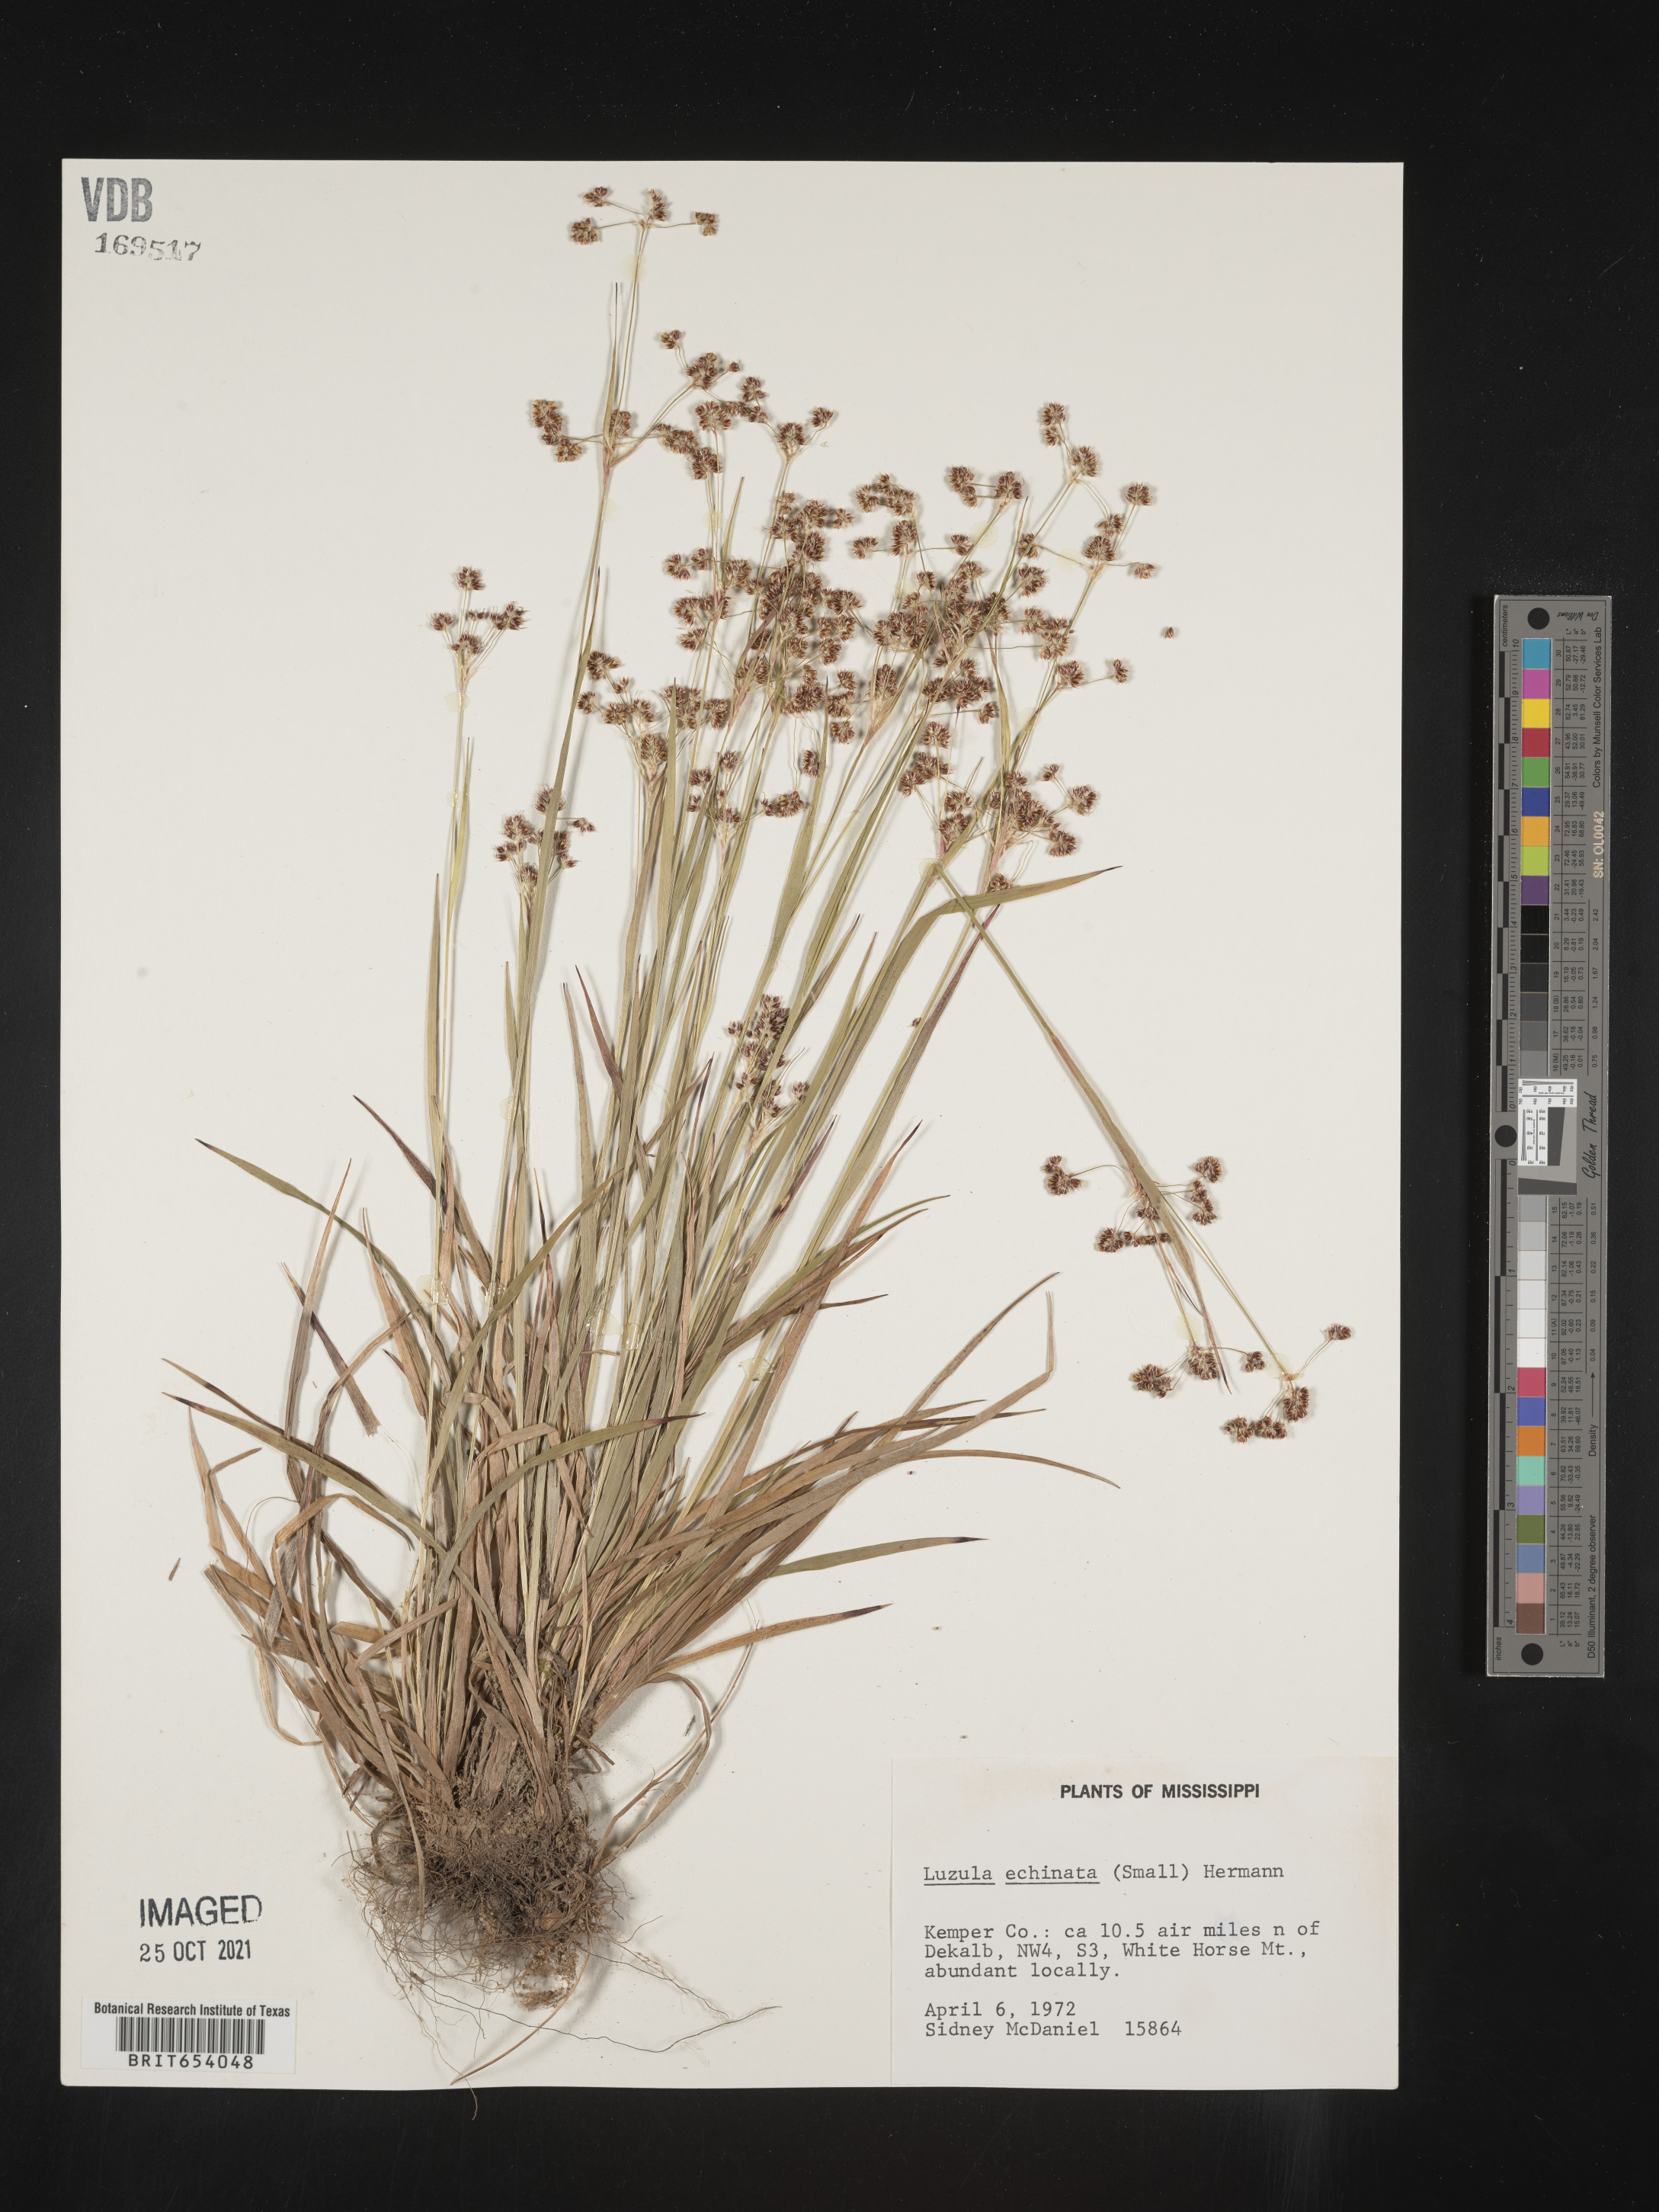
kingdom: Plantae
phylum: Tracheophyta
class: Liliopsida
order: Poales
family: Juncaceae
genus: Luzula
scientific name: Luzula echinata
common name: Hedgehog woodrush
